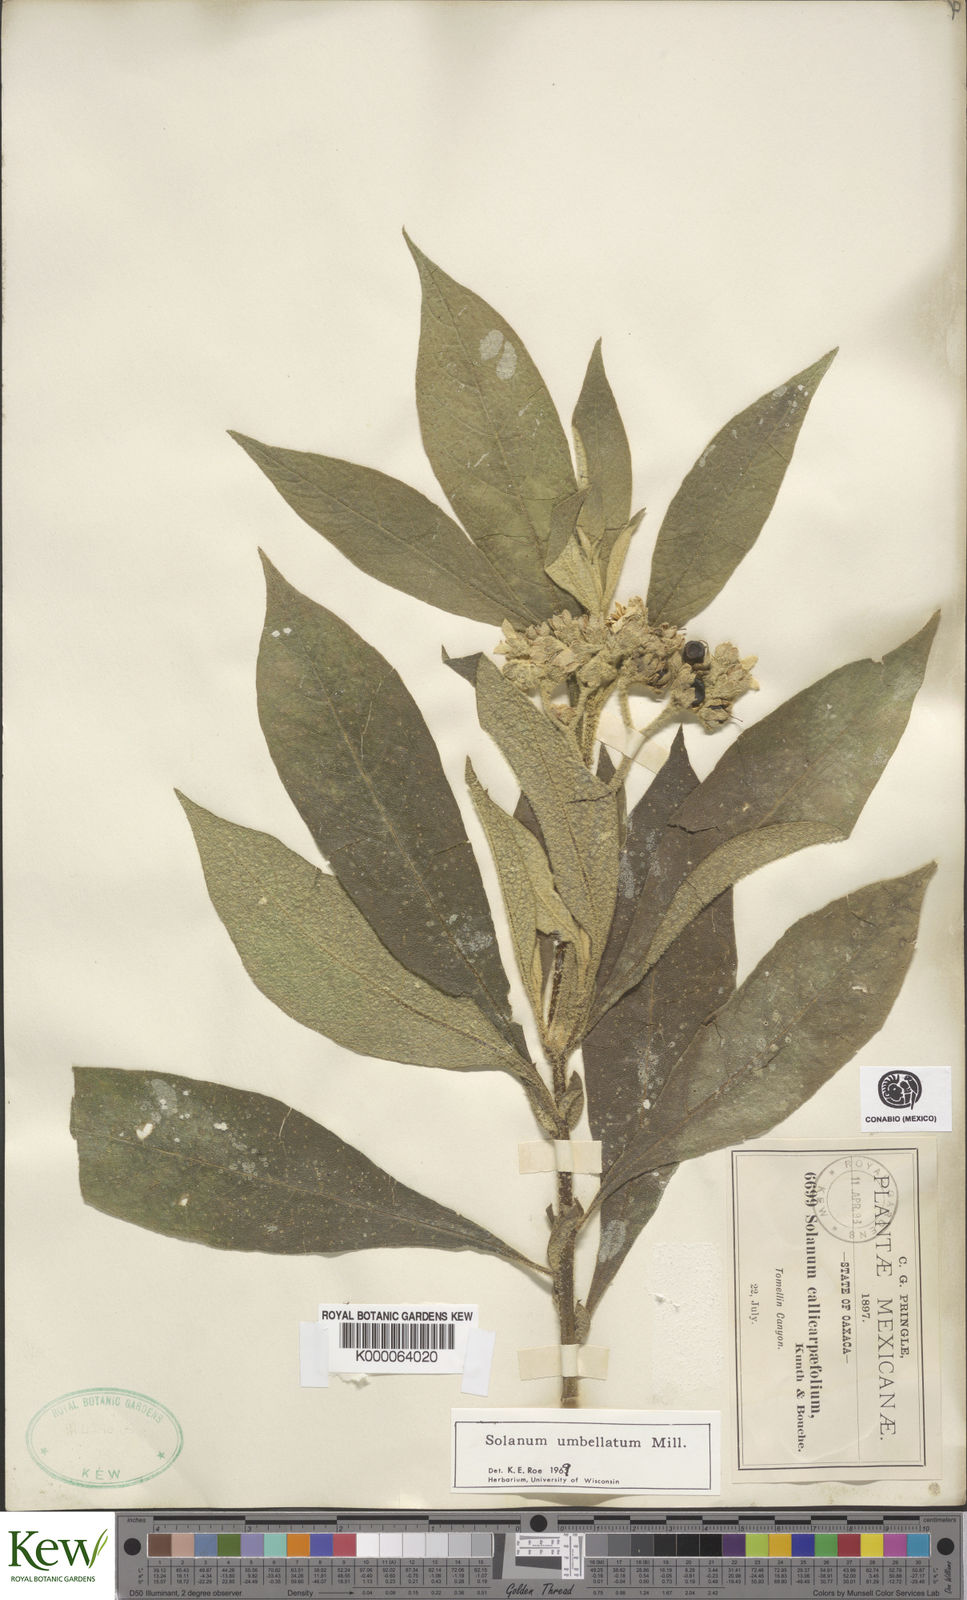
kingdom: Plantae
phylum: Tracheophyta
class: Magnoliopsida
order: Solanales
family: Solanaceae
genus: Solanum
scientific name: Solanum umbellatum
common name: Nightshade
